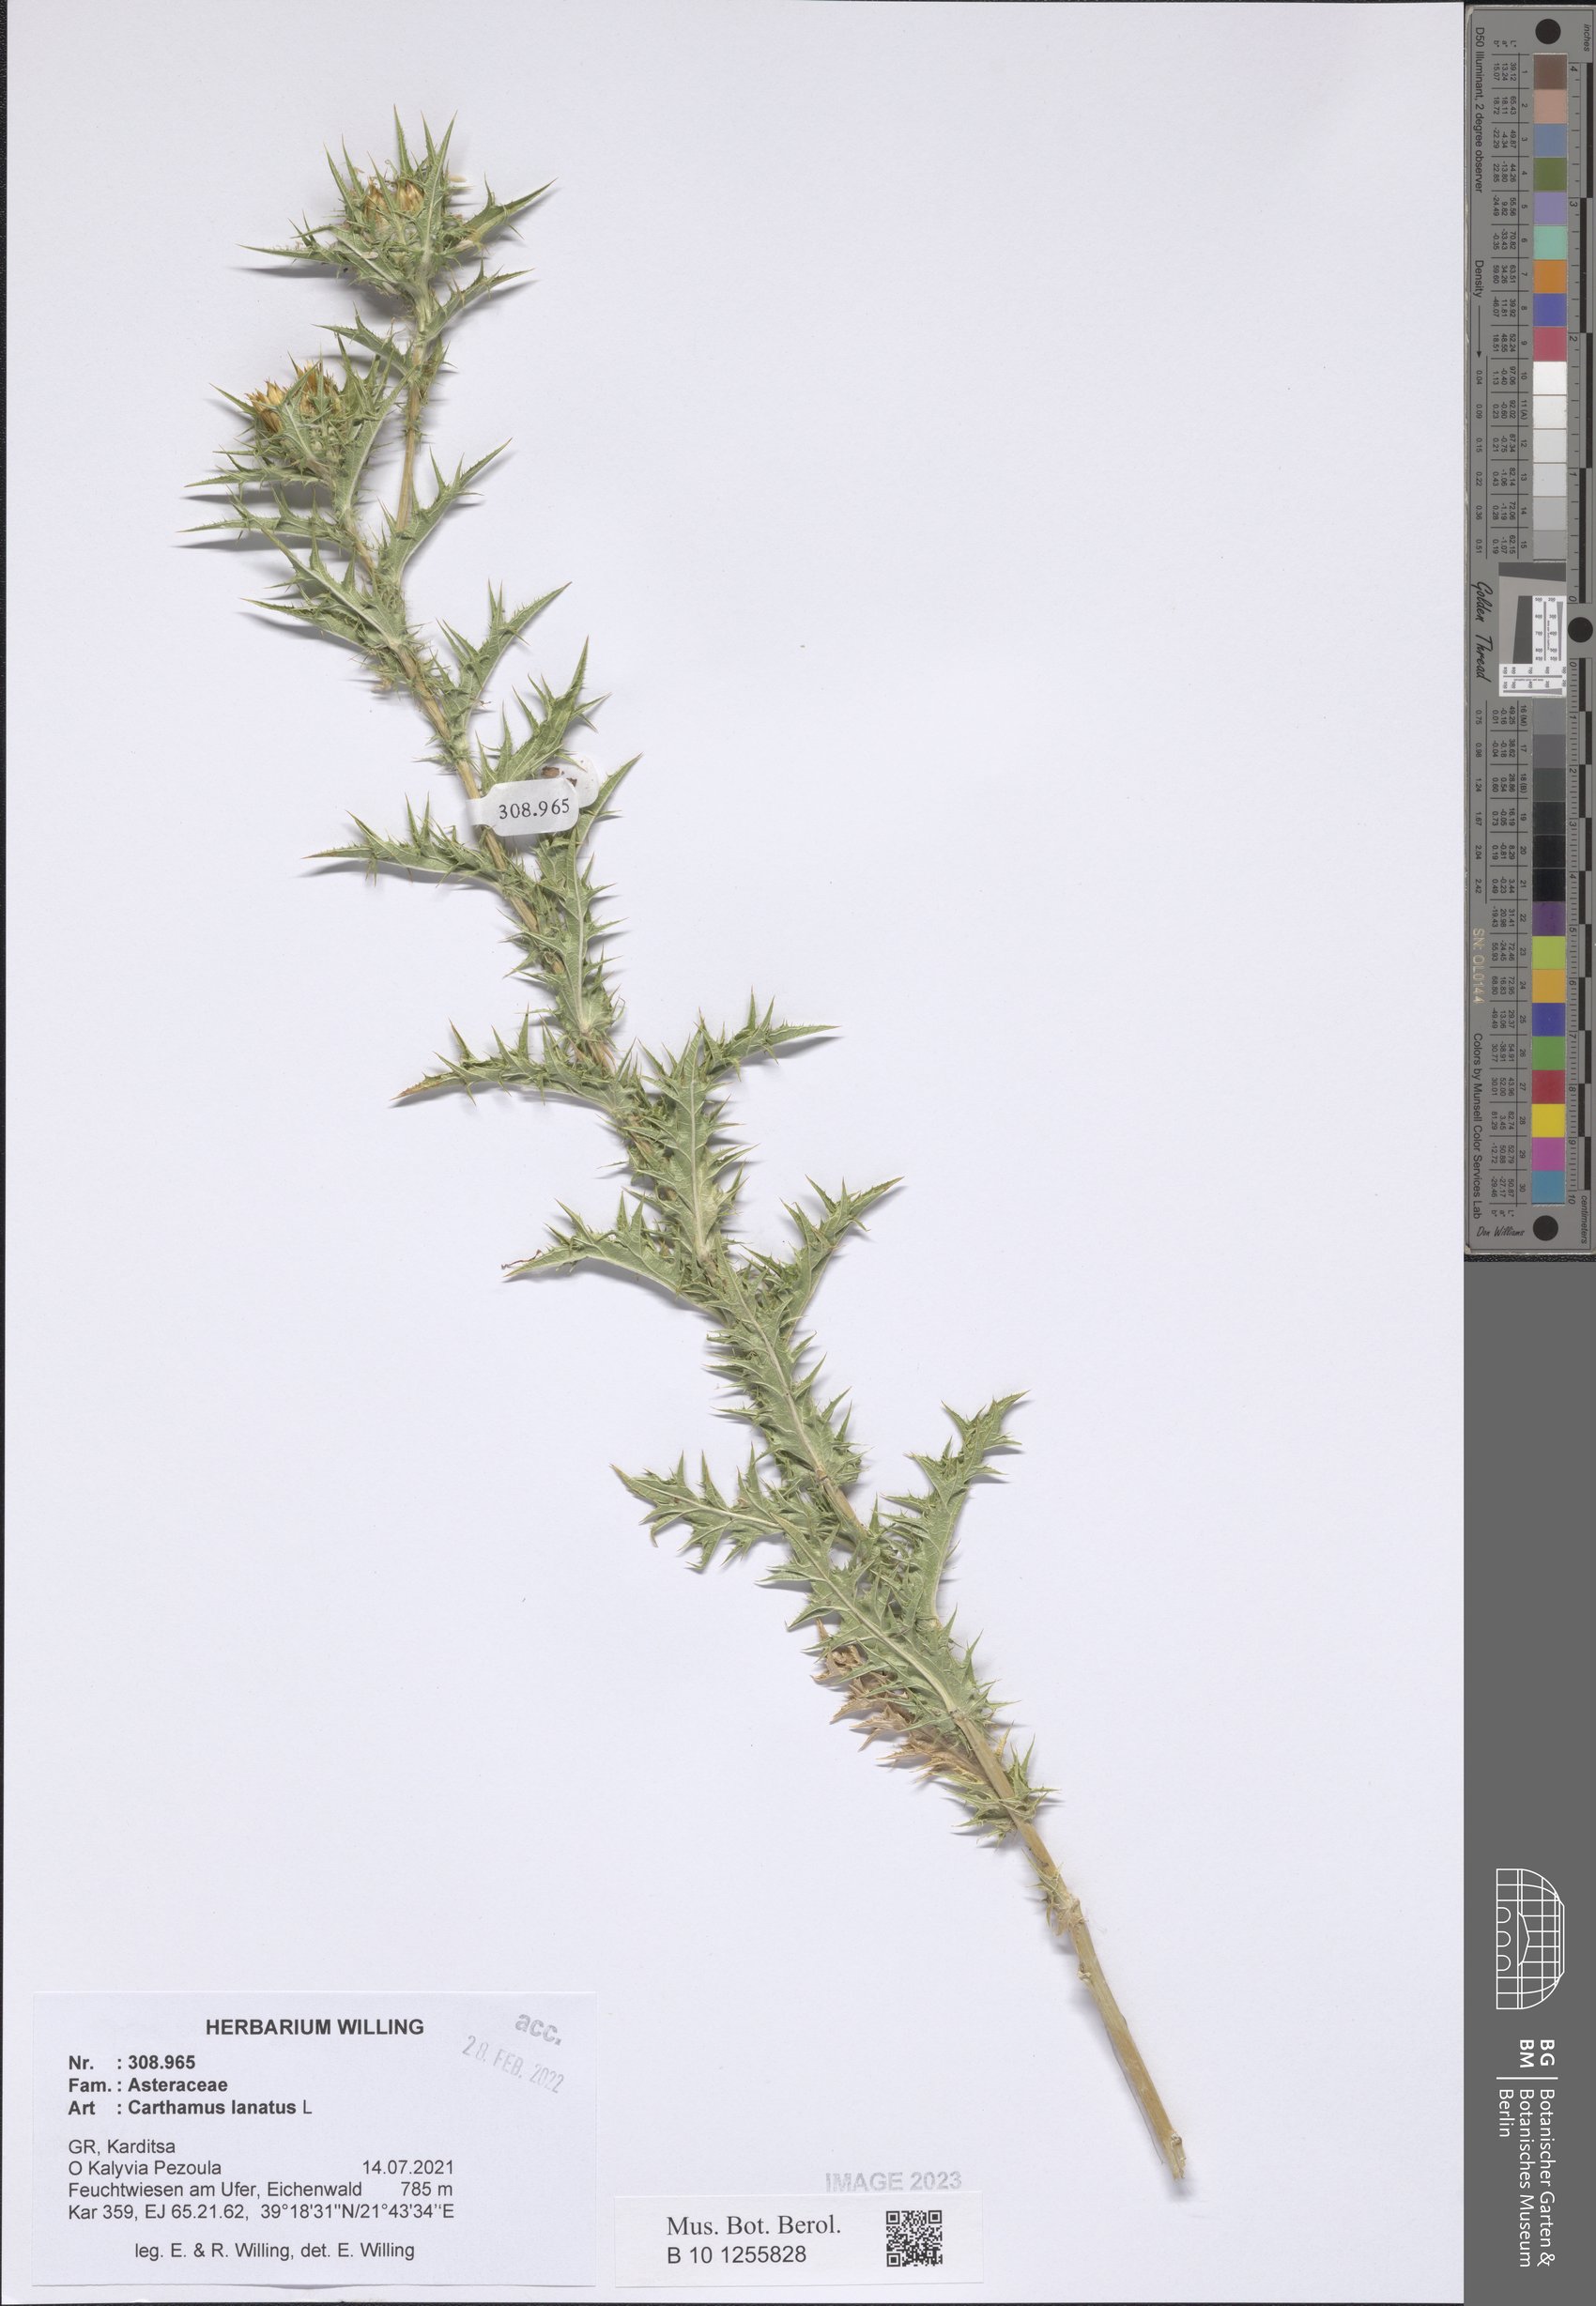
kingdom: Plantae
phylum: Tracheophyta
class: Magnoliopsida
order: Asterales
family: Asteraceae
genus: Carthamus
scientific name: Carthamus lanatus
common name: Downy safflower
